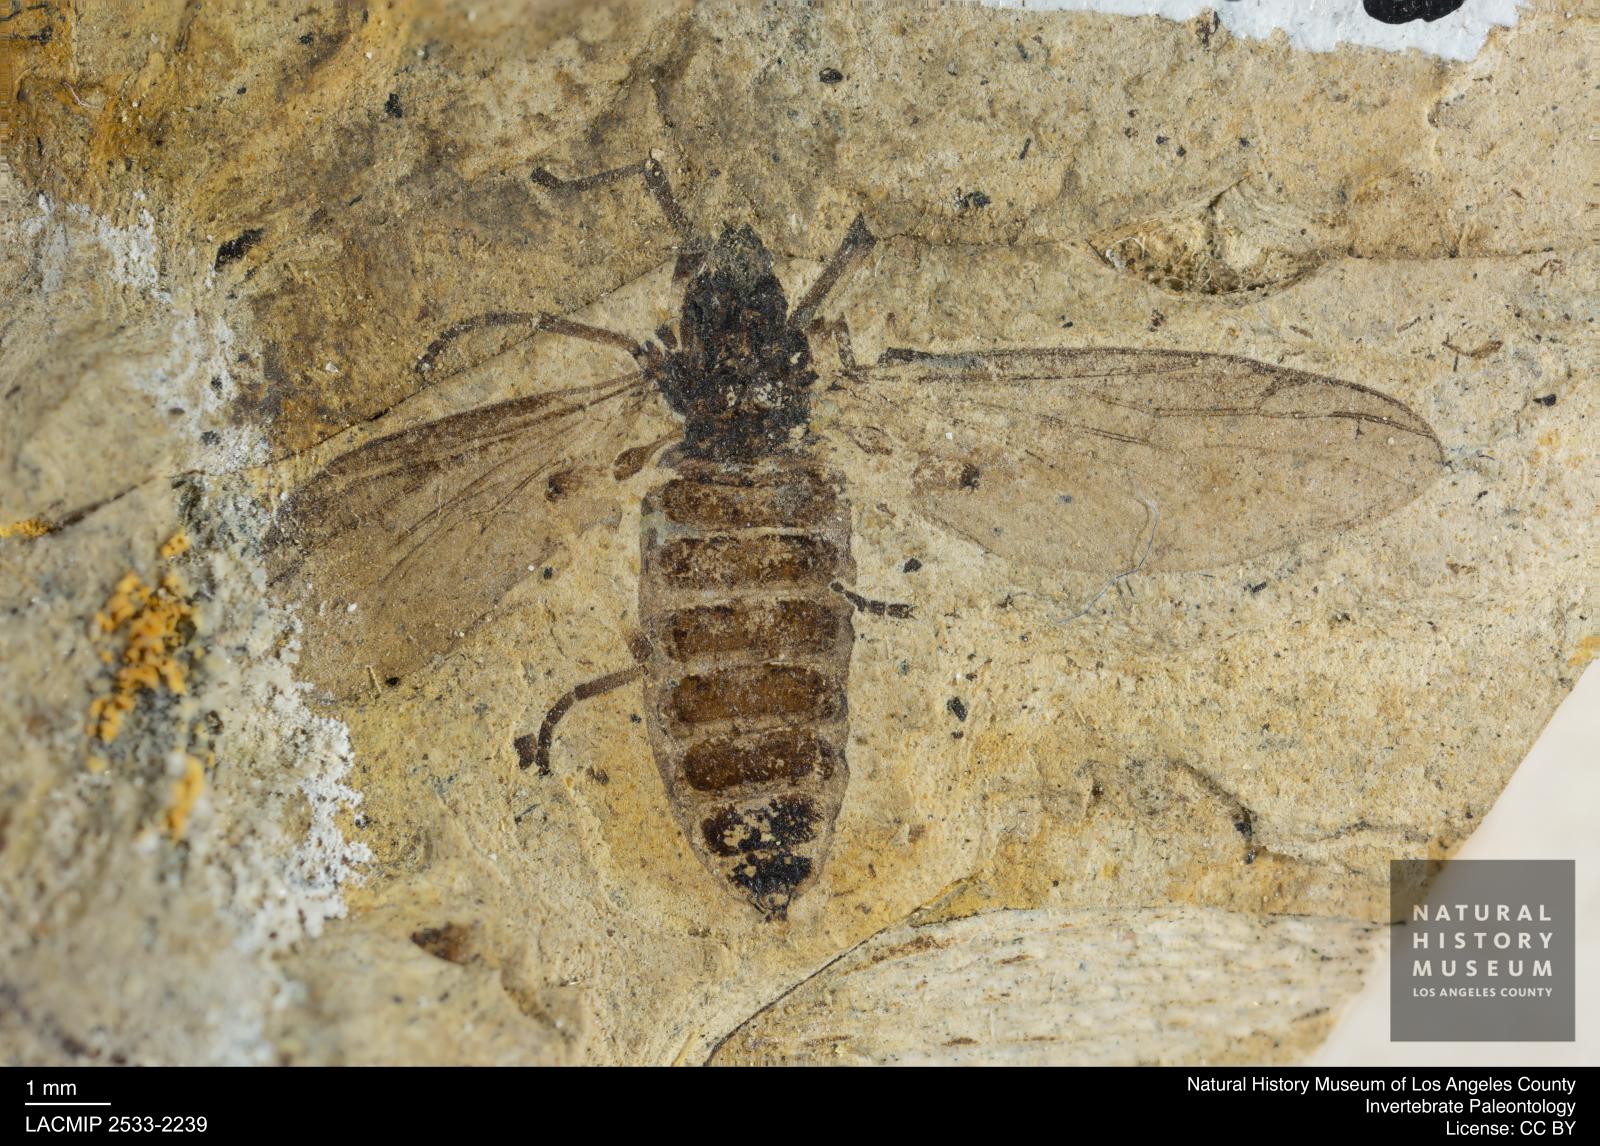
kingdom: Animalia
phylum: Arthropoda
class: Insecta
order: Diptera
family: Bibionidae
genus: Plecia
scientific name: Plecia grossa
